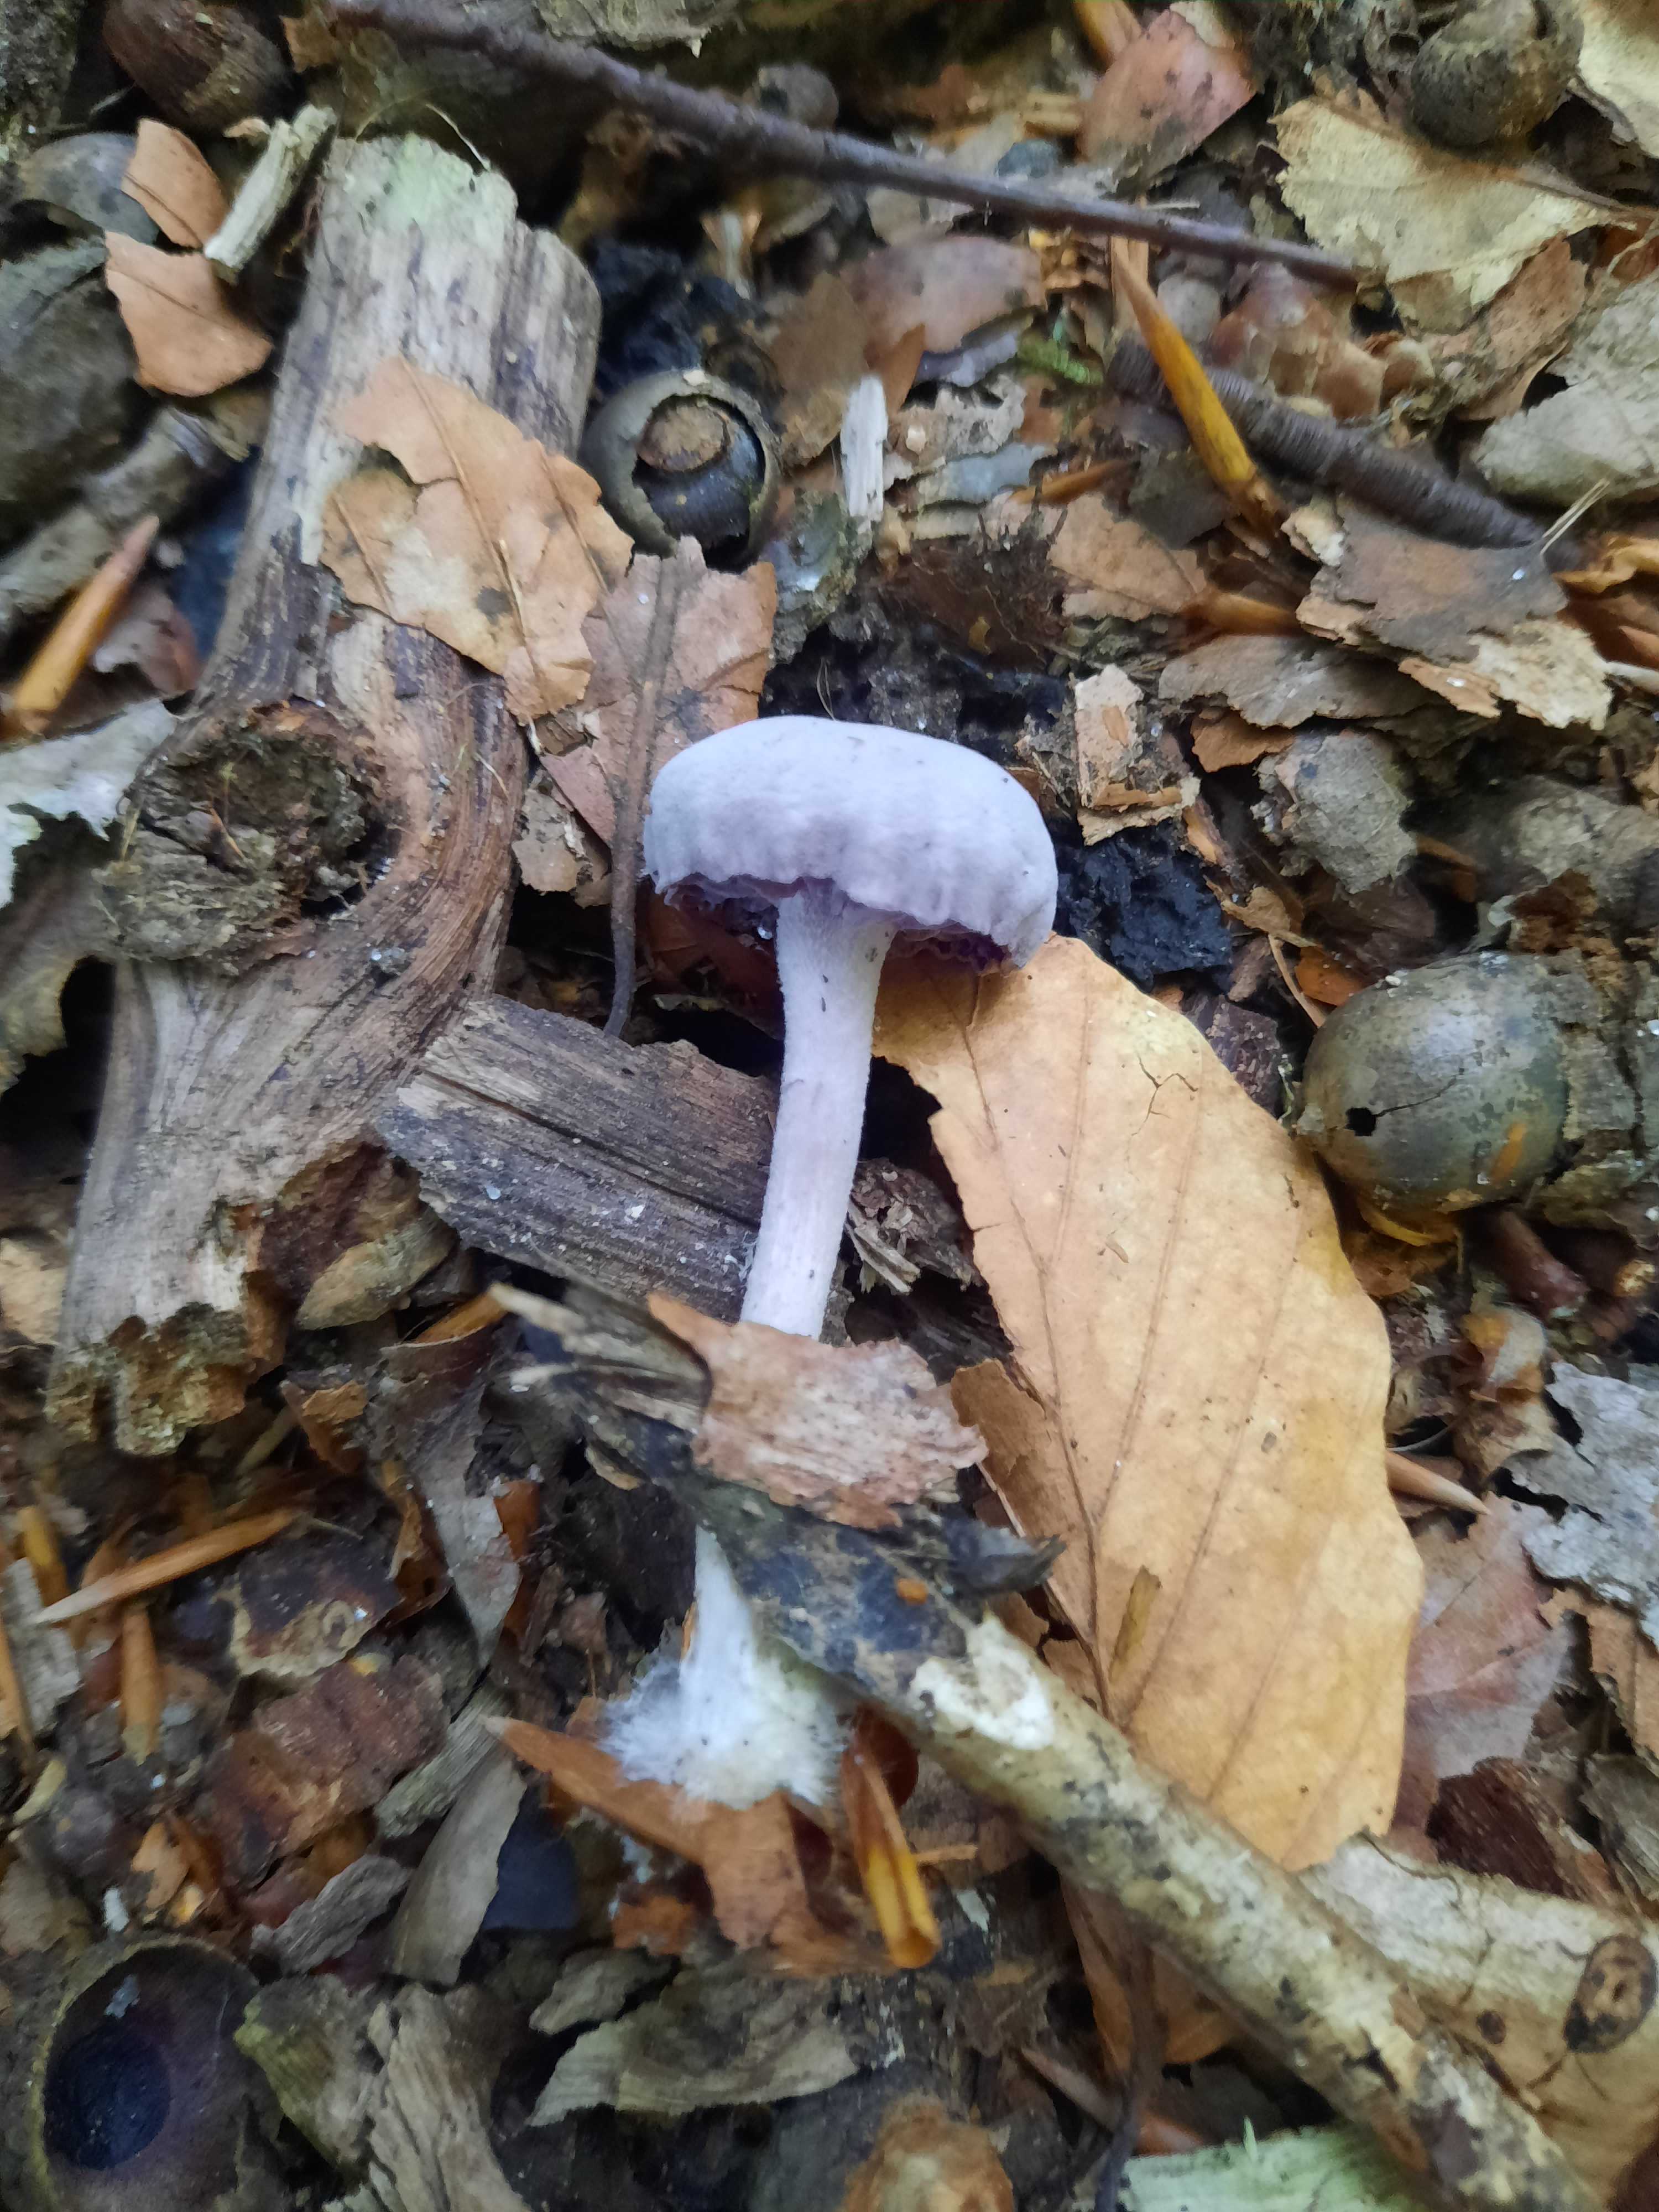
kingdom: Fungi
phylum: Basidiomycota
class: Agaricomycetes
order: Agaricales
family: Hydnangiaceae
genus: Laccaria
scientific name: Laccaria amethystina
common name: violet ametysthat
